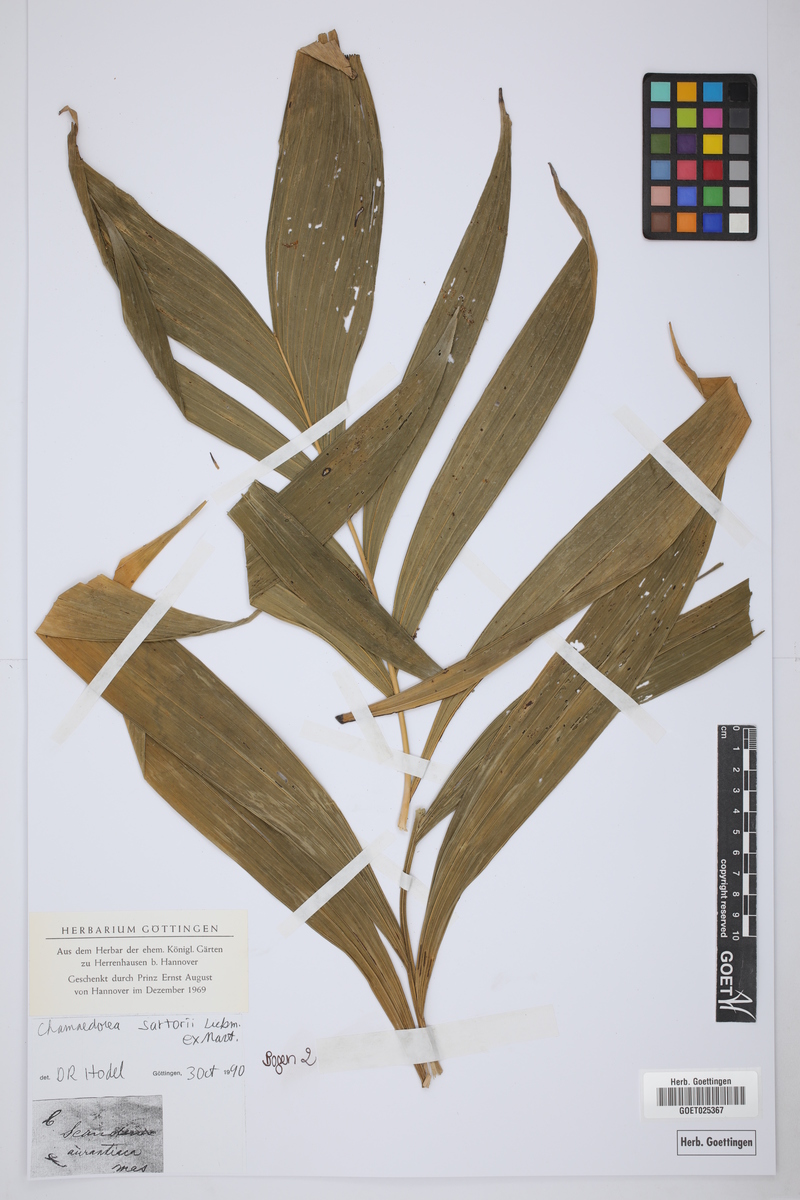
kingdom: Plantae
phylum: Tracheophyta
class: Liliopsida
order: Arecales
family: Arecaceae
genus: Chamaedorea
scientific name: Chamaedorea sartorii
